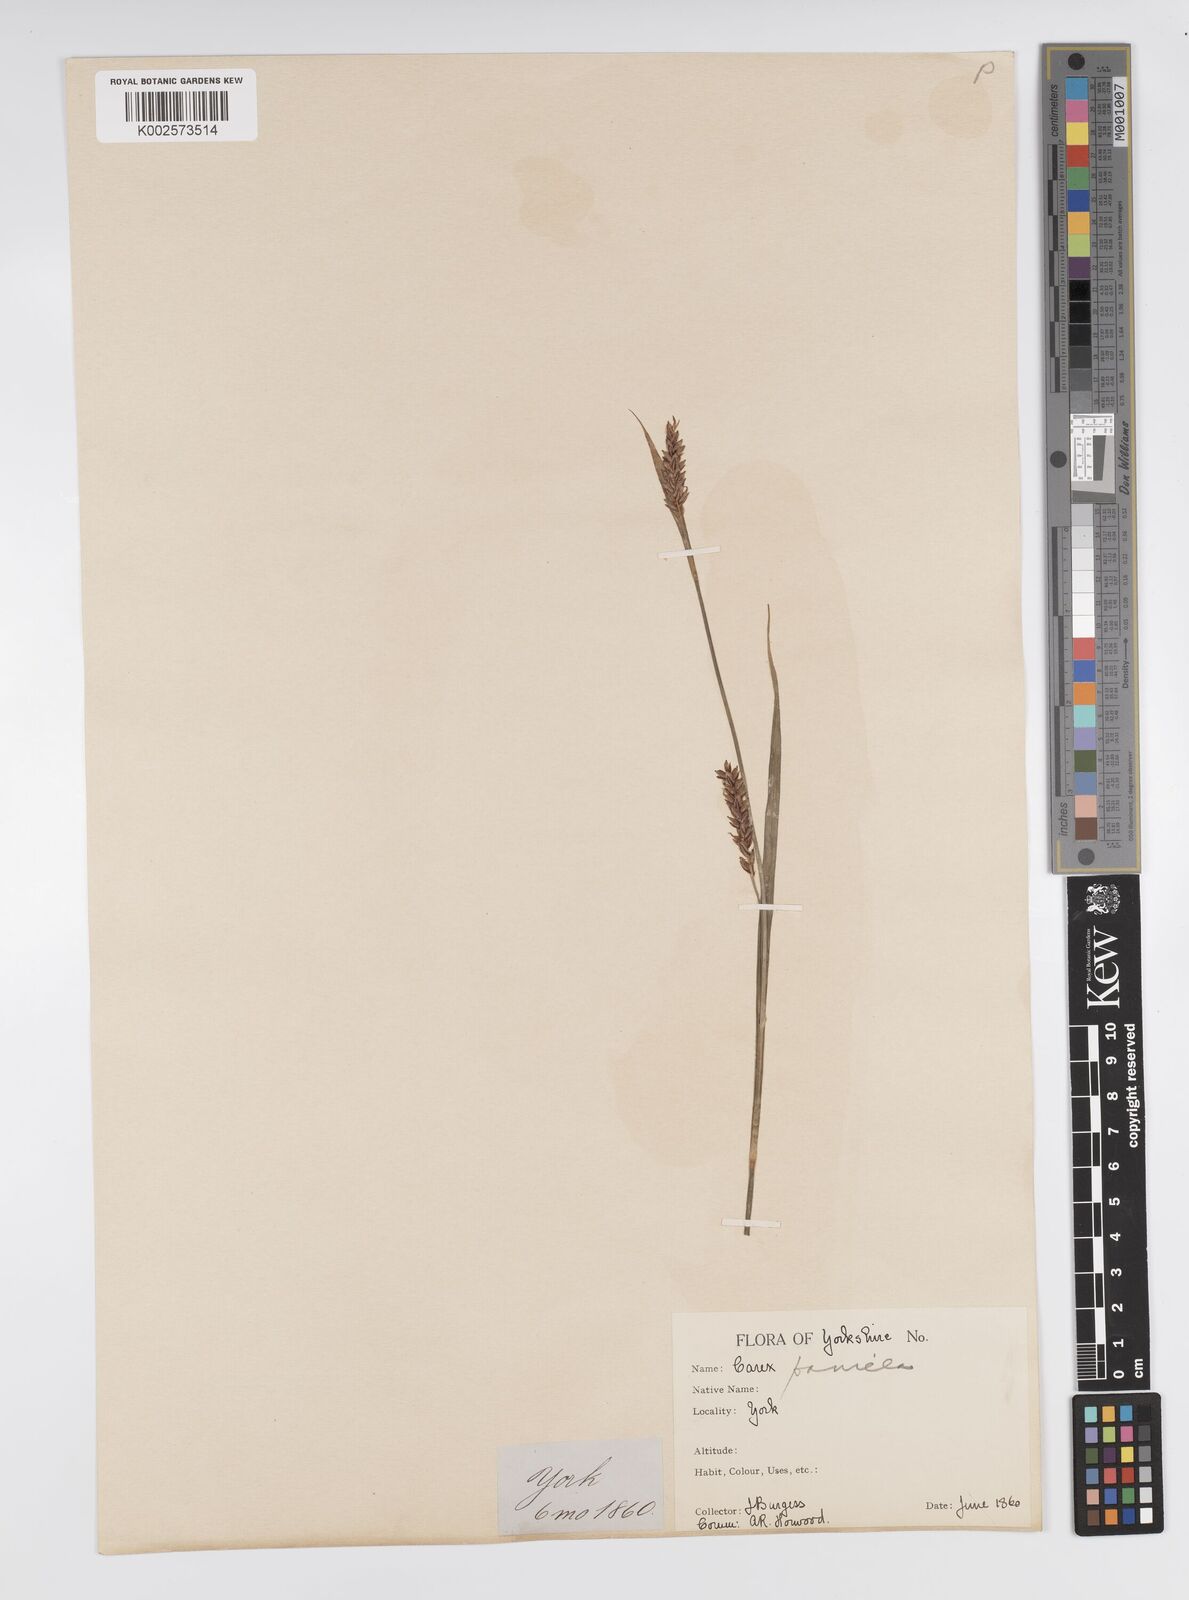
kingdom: Plantae
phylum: Tracheophyta
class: Liliopsida
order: Poales
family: Cyperaceae
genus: Carex
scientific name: Carex panicea
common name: Carnation sedge
